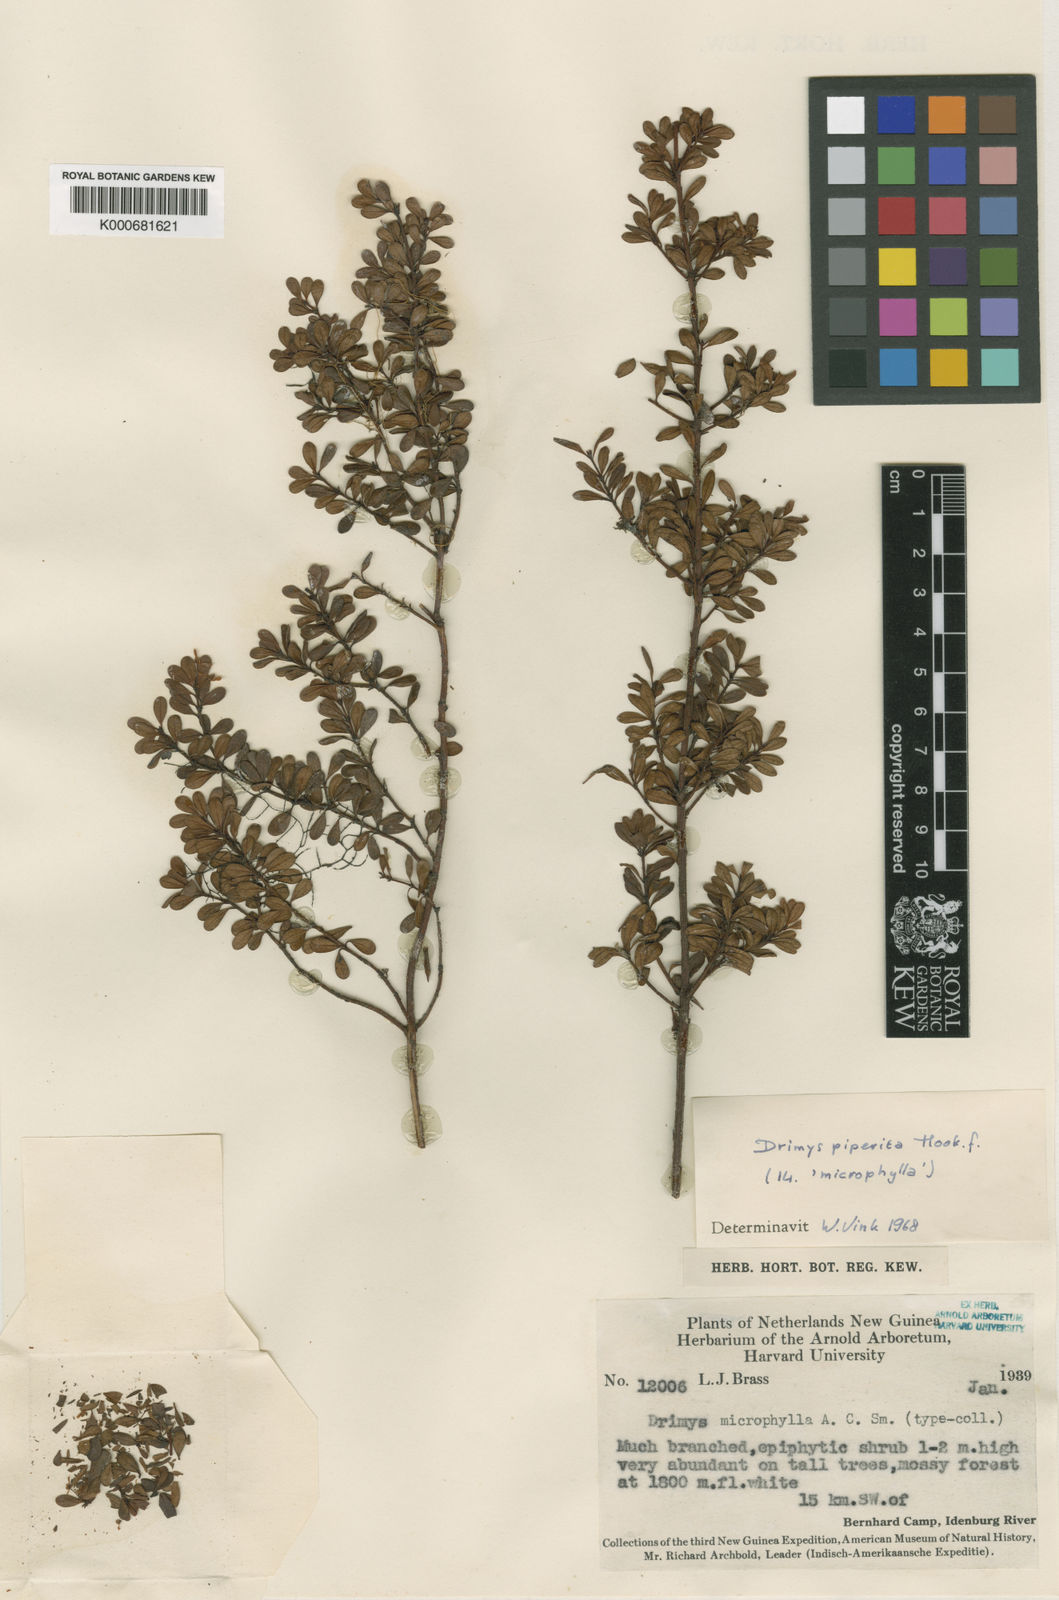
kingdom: Plantae
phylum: Tracheophyta
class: Magnoliopsida
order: Canellales
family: Winteraceae
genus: Drimys
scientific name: Drimys piperita
